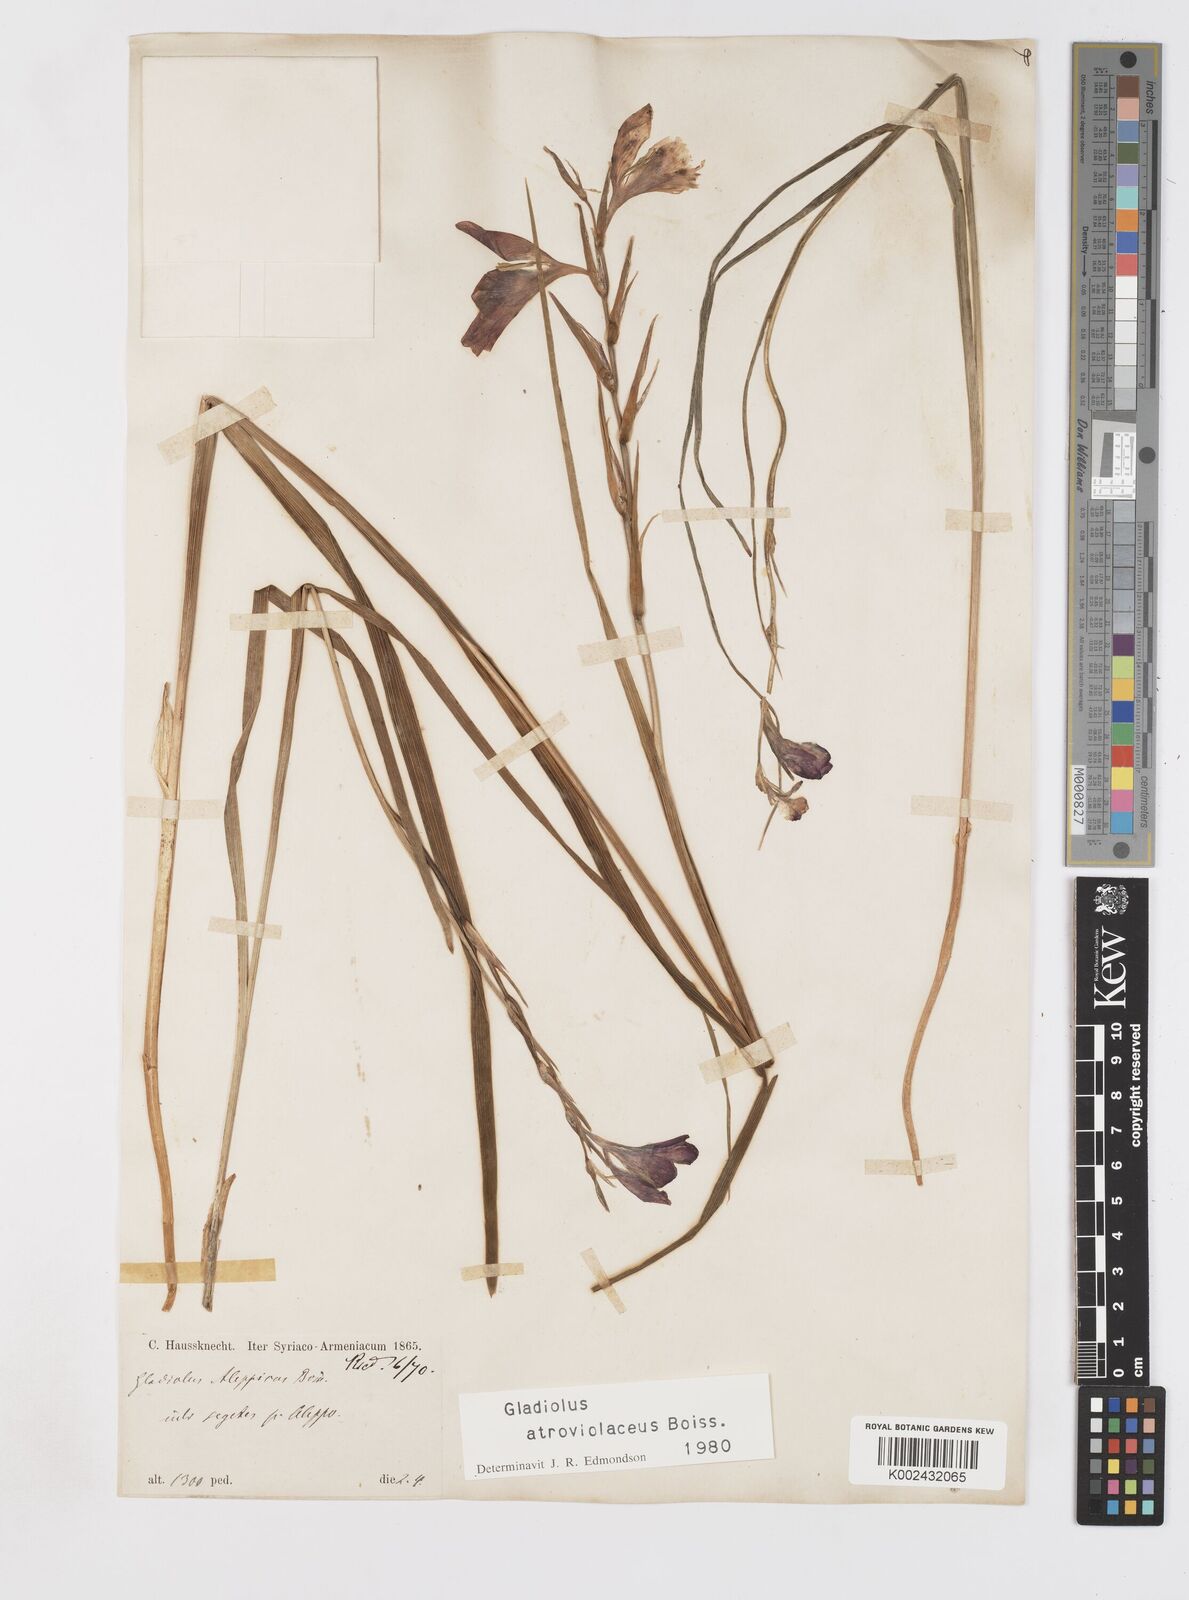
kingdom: Plantae
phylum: Tracheophyta
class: Liliopsida
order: Asparagales
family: Iridaceae
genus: Gladiolus
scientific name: Gladiolus atroviolaceus
